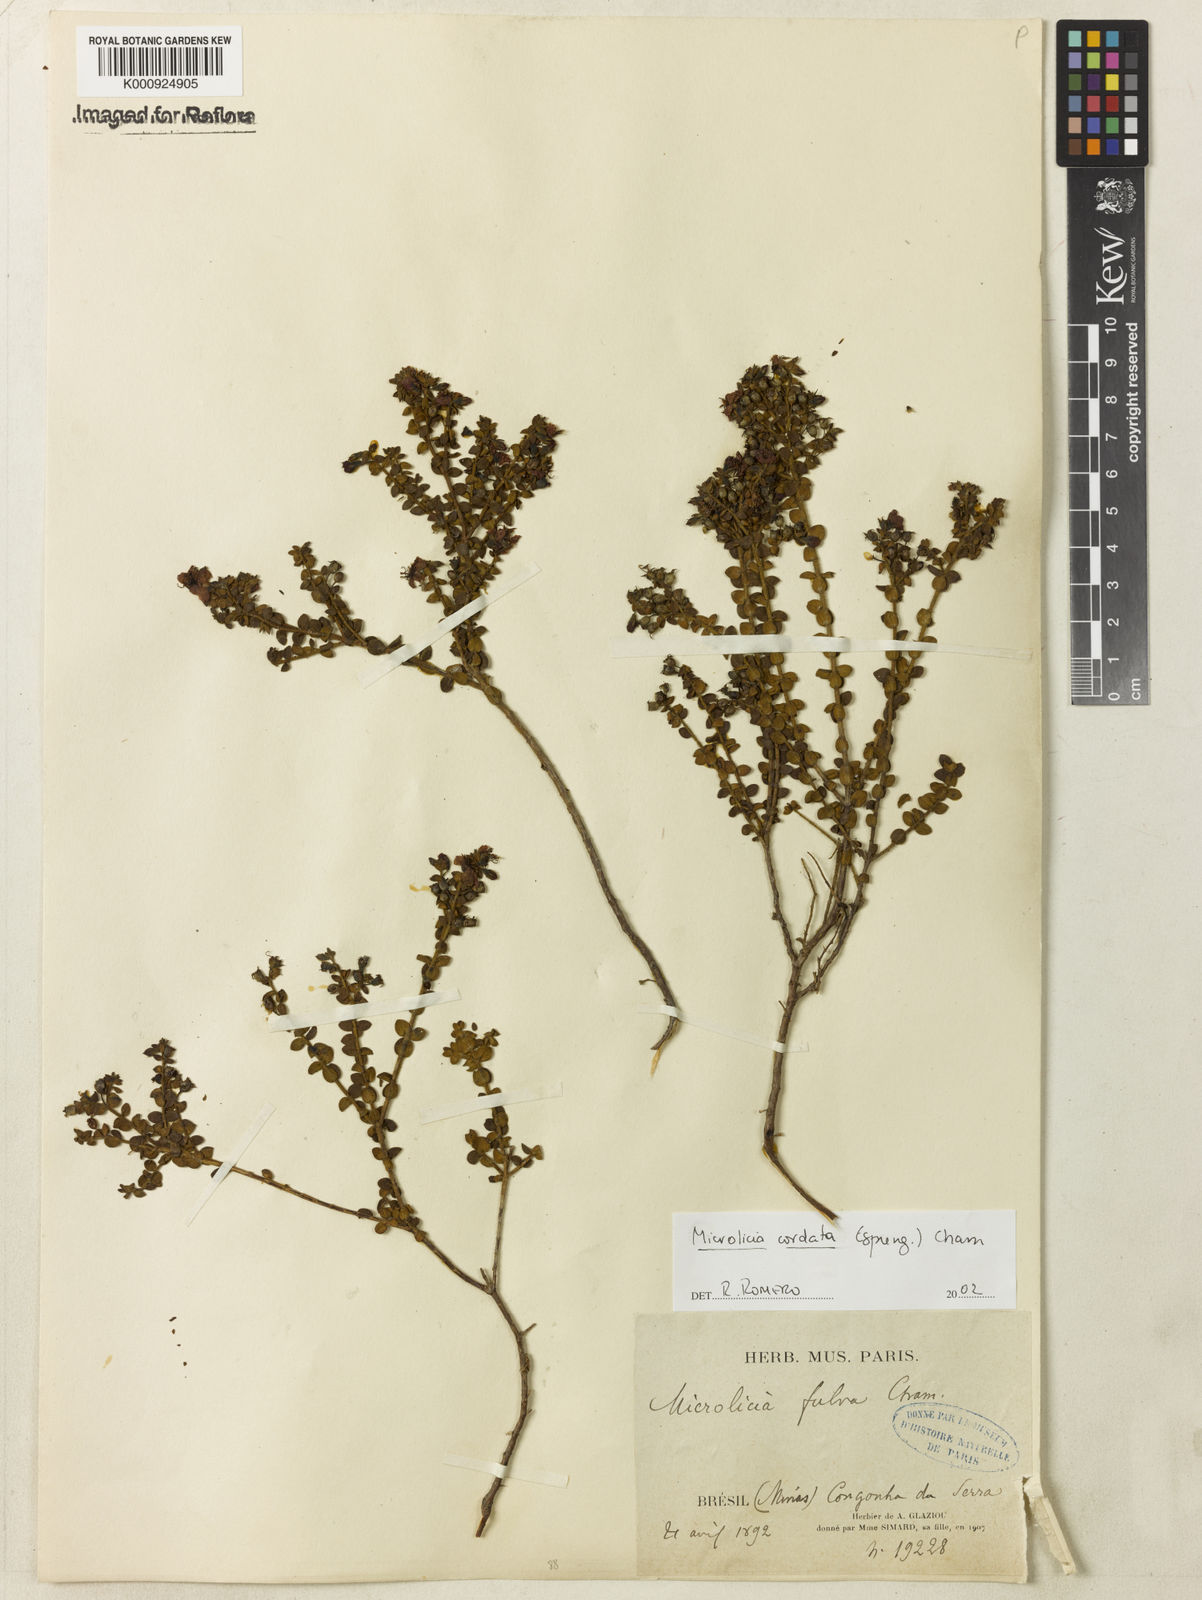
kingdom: Plantae
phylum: Tracheophyta
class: Magnoliopsida
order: Myrtales
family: Melastomataceae
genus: Microlicia
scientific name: Microlicia cordata
